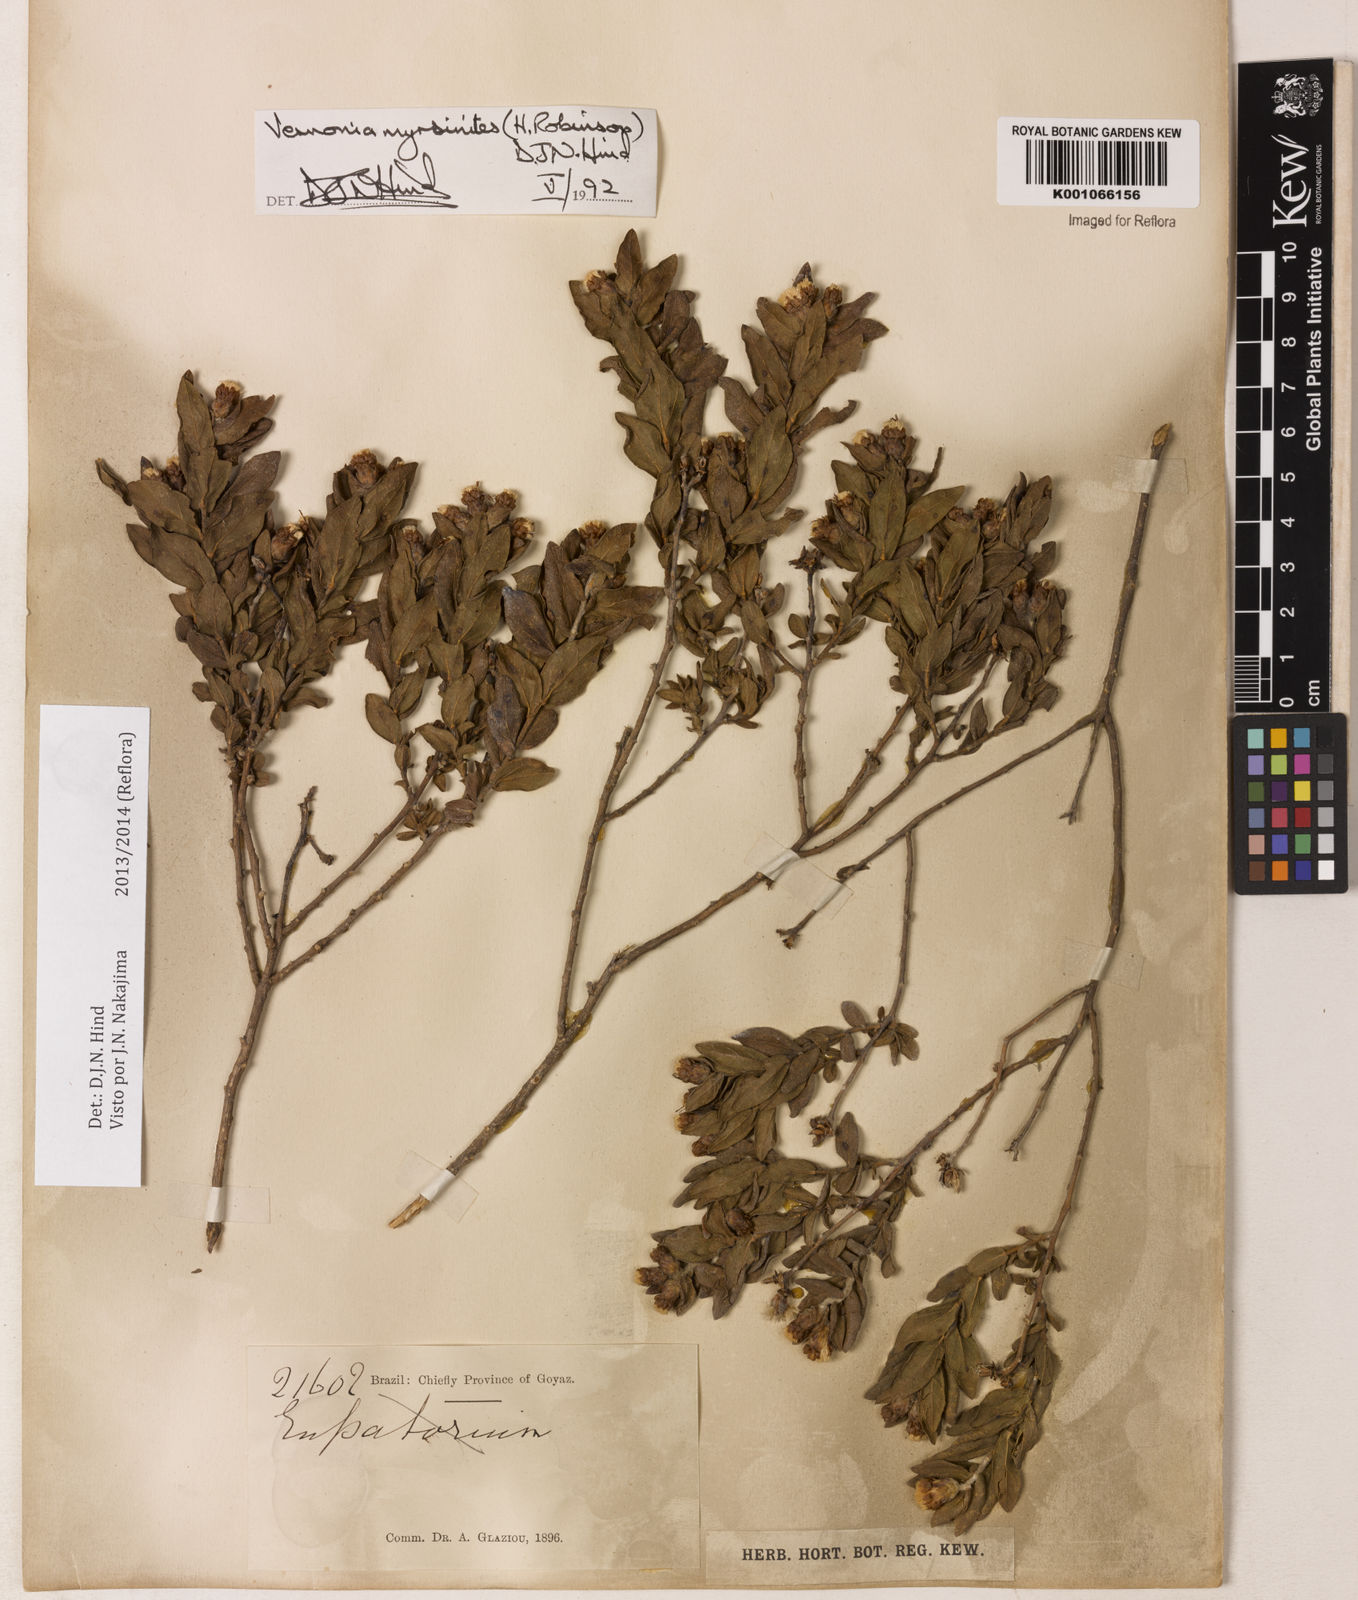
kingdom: Plantae
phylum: Tracheophyta
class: Magnoliopsida
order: Asterales
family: Asteraceae
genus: Lessingianthus
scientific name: Lessingianthus myrsinites
